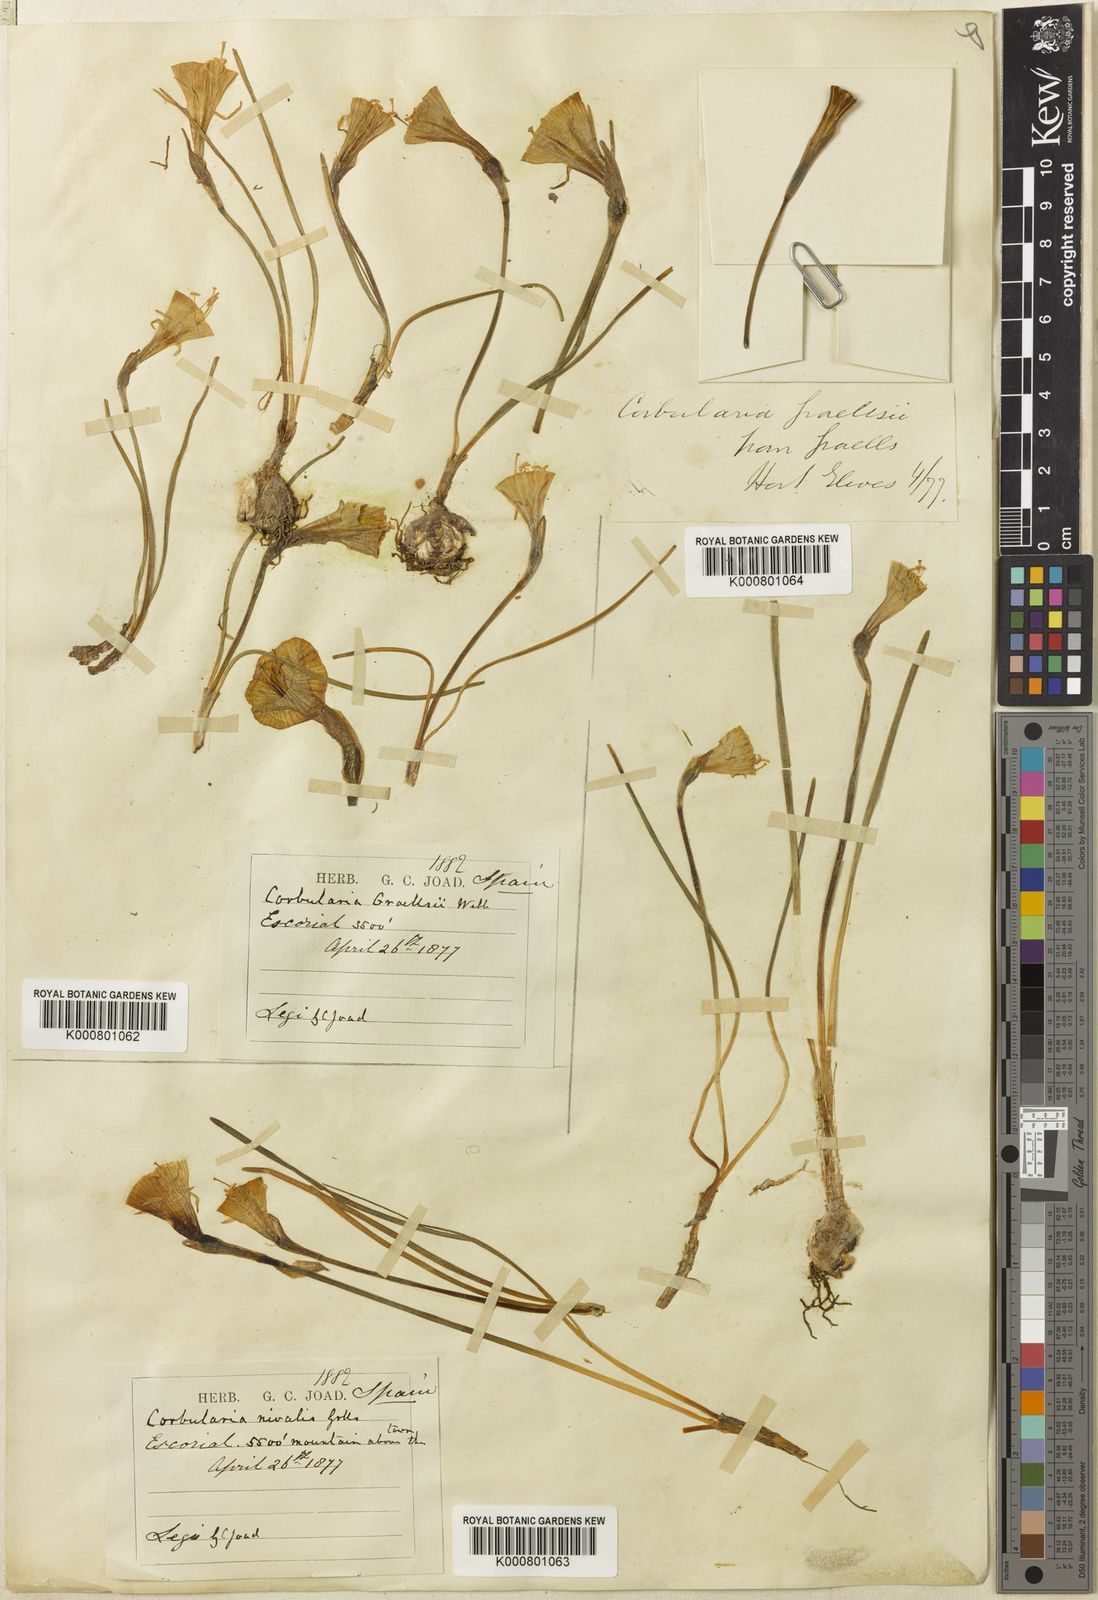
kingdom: Plantae
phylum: Tracheophyta
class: Liliopsida
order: Asparagales
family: Amaryllidaceae
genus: Narcissus
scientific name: Narcissus bulbocodium
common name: Hoop-petticoat daffodil
